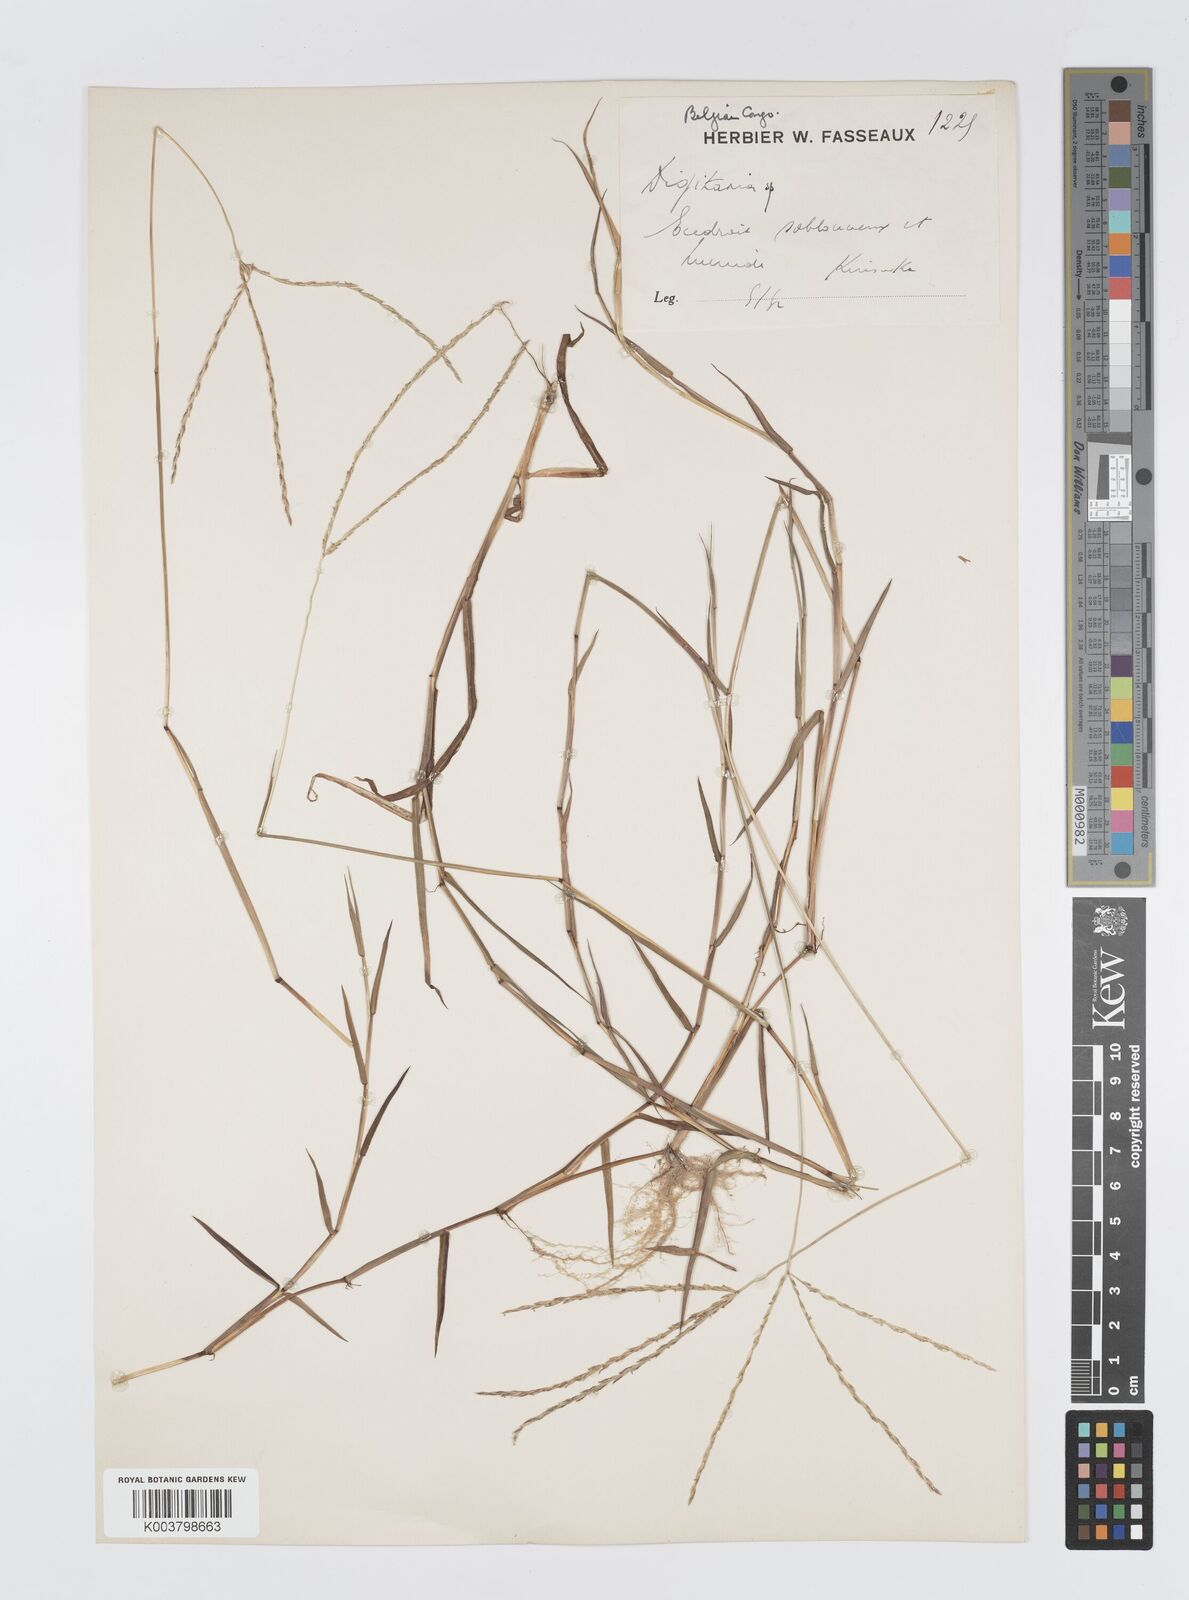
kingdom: Plantae
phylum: Tracheophyta
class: Liliopsida
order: Poales
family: Poaceae
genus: Digitaria
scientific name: Digitaria acuminatissima
